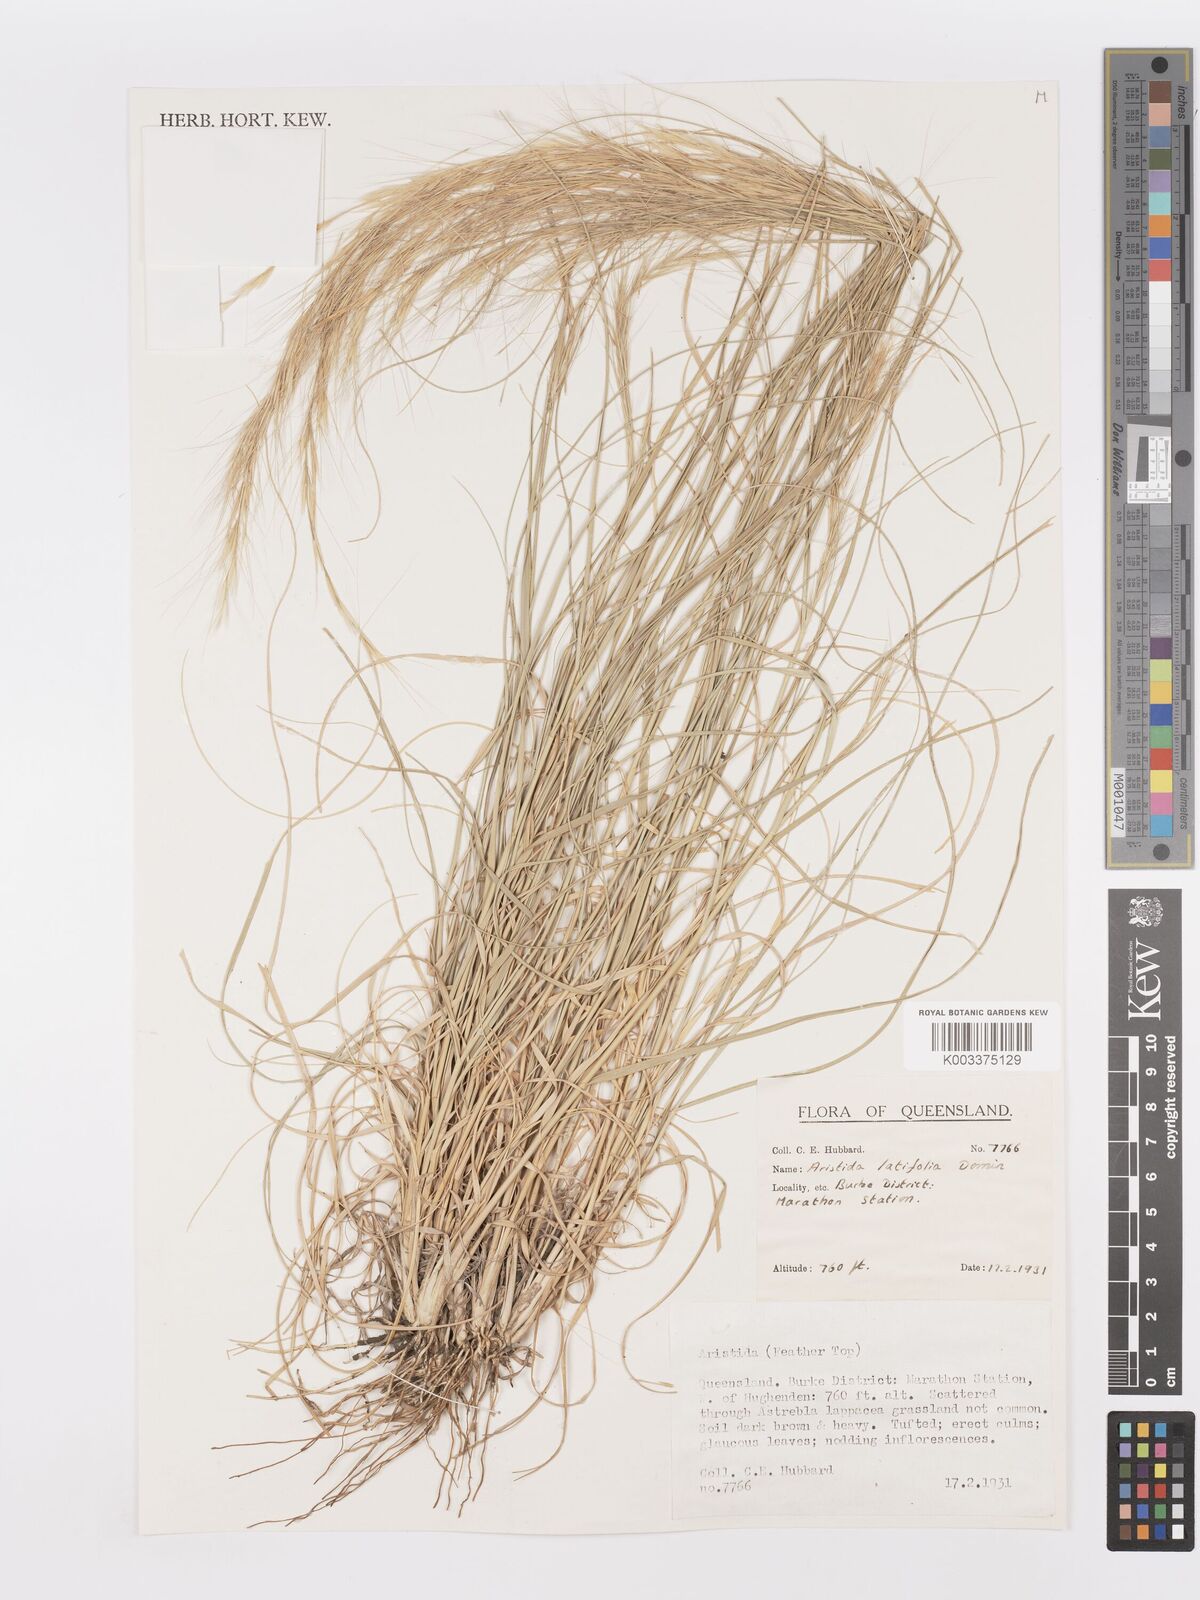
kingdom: Plantae
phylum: Tracheophyta
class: Liliopsida
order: Poales
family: Poaceae
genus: Aristida
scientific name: Aristida latifolia
